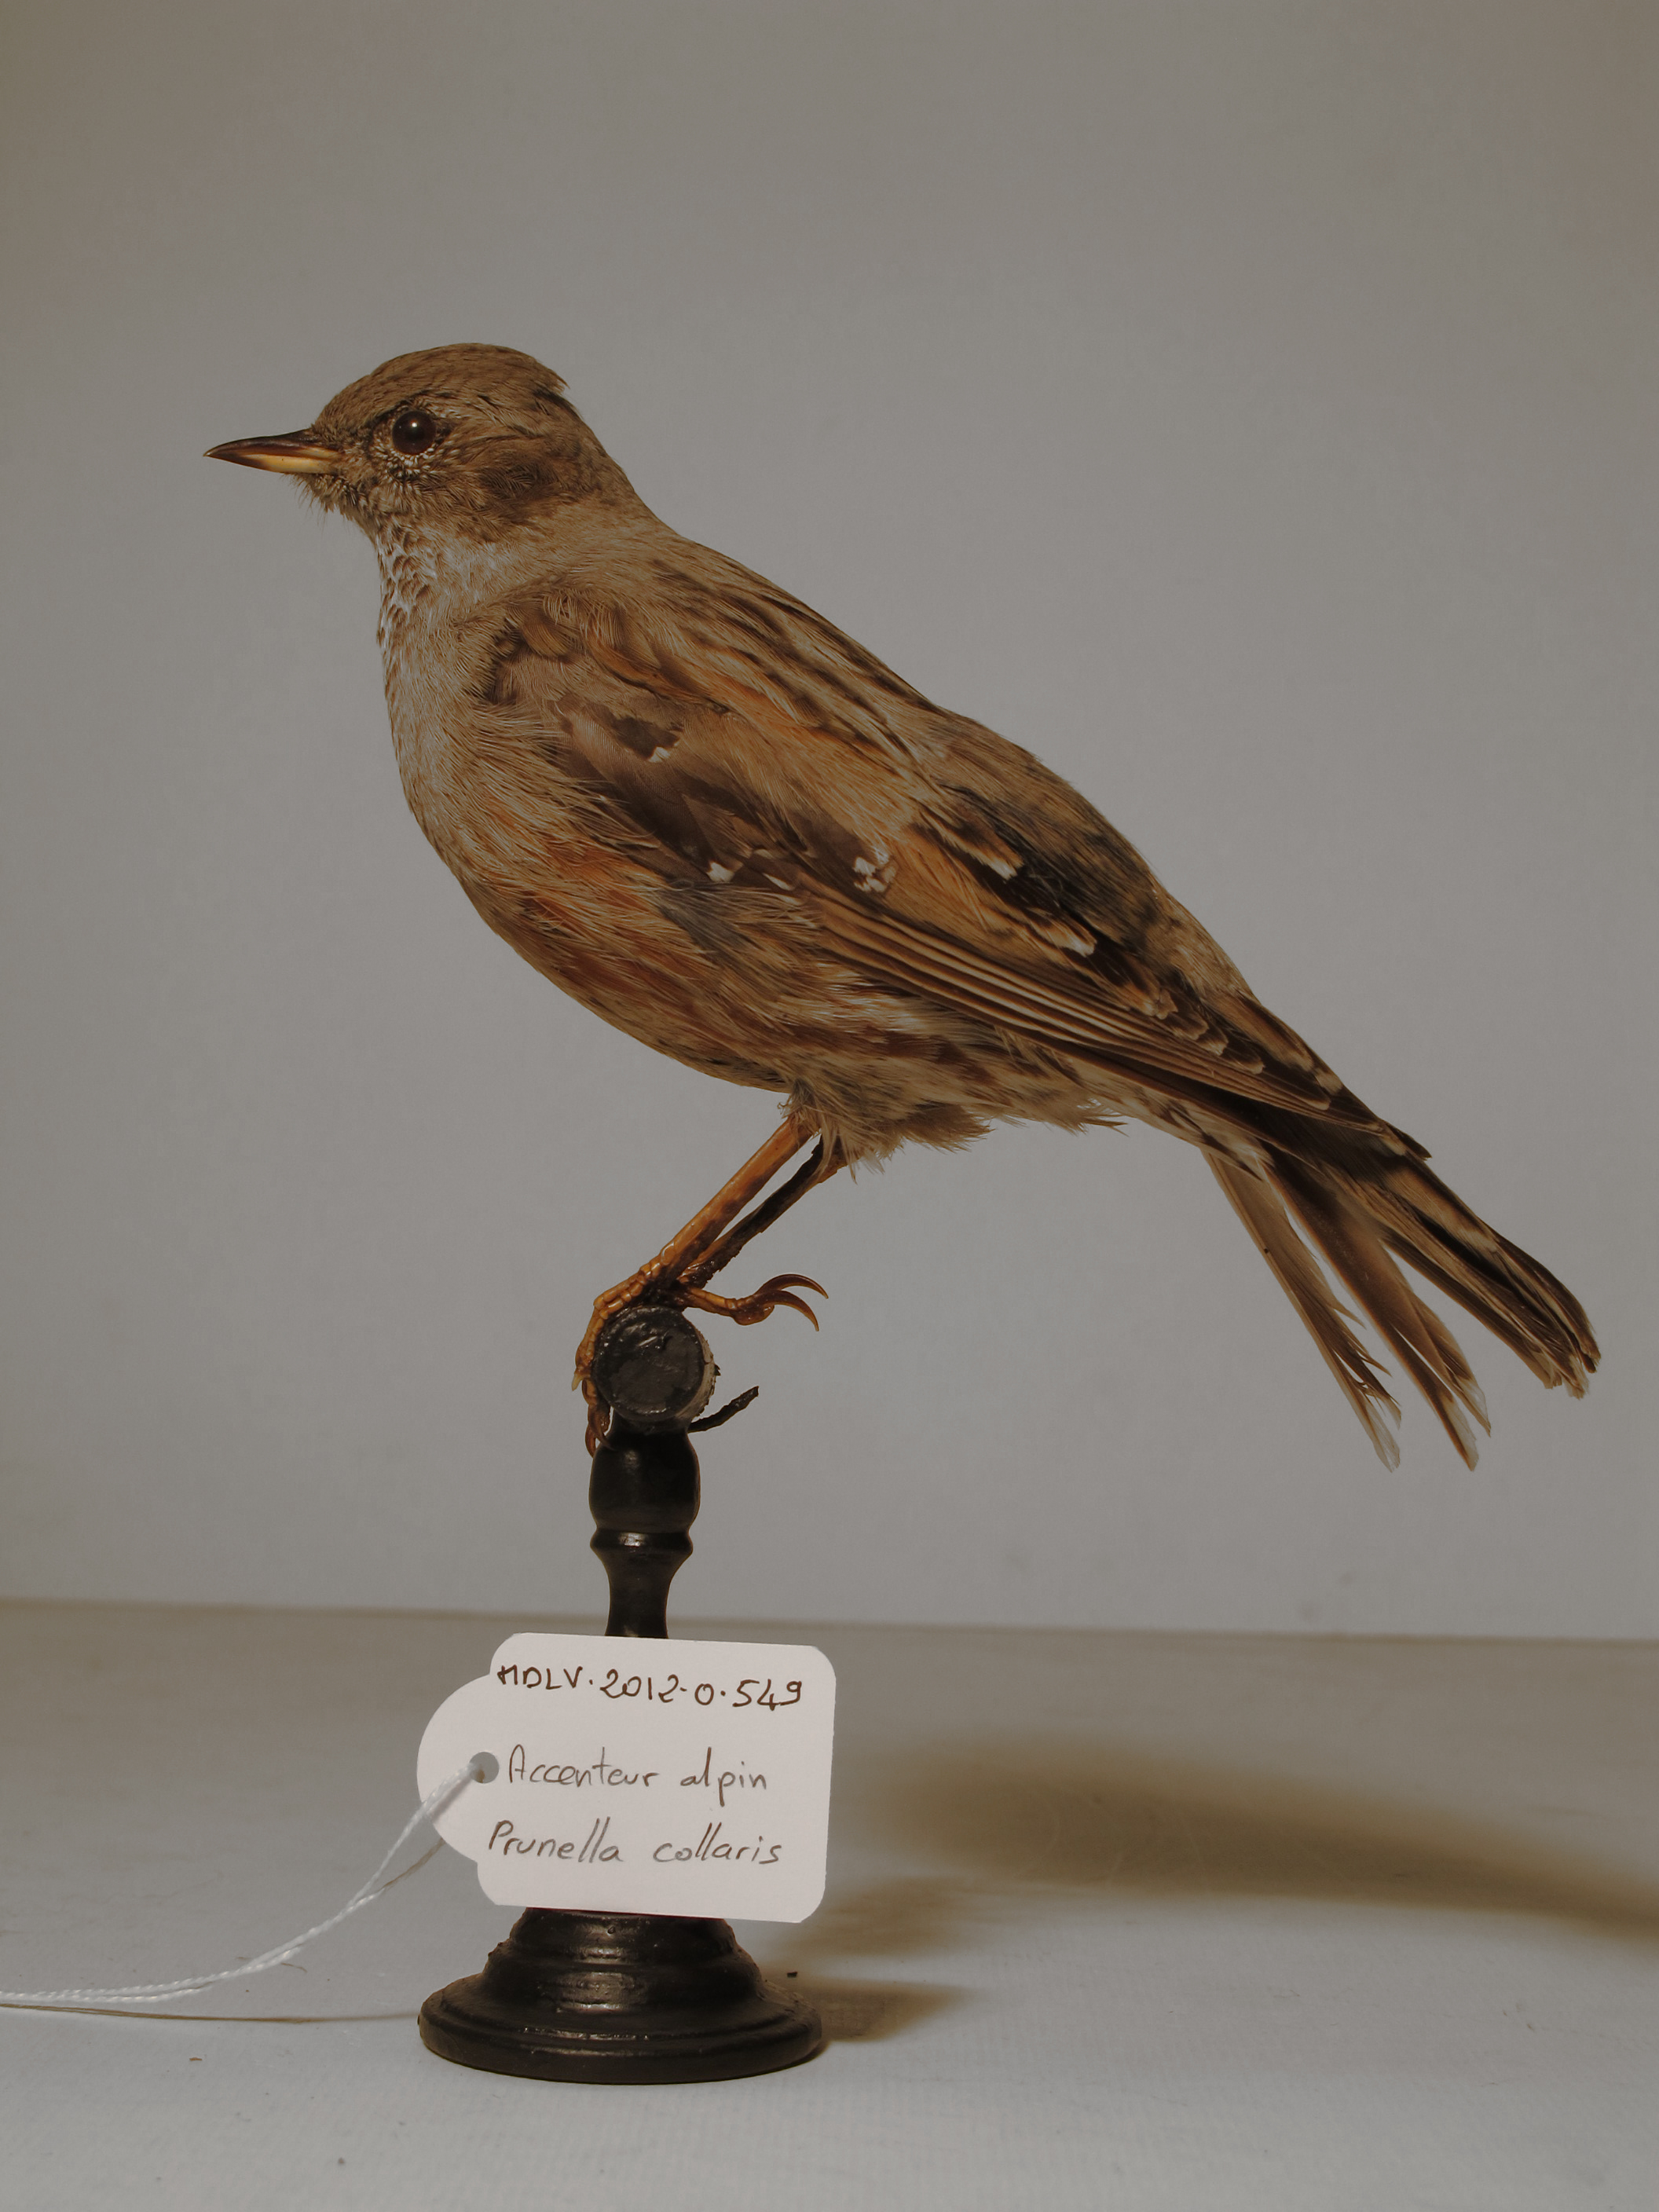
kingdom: Animalia
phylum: Chordata
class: Aves
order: Passeriformes
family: Prunellidae
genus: Prunella
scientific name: Prunella collaris
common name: Alpine Accentor
